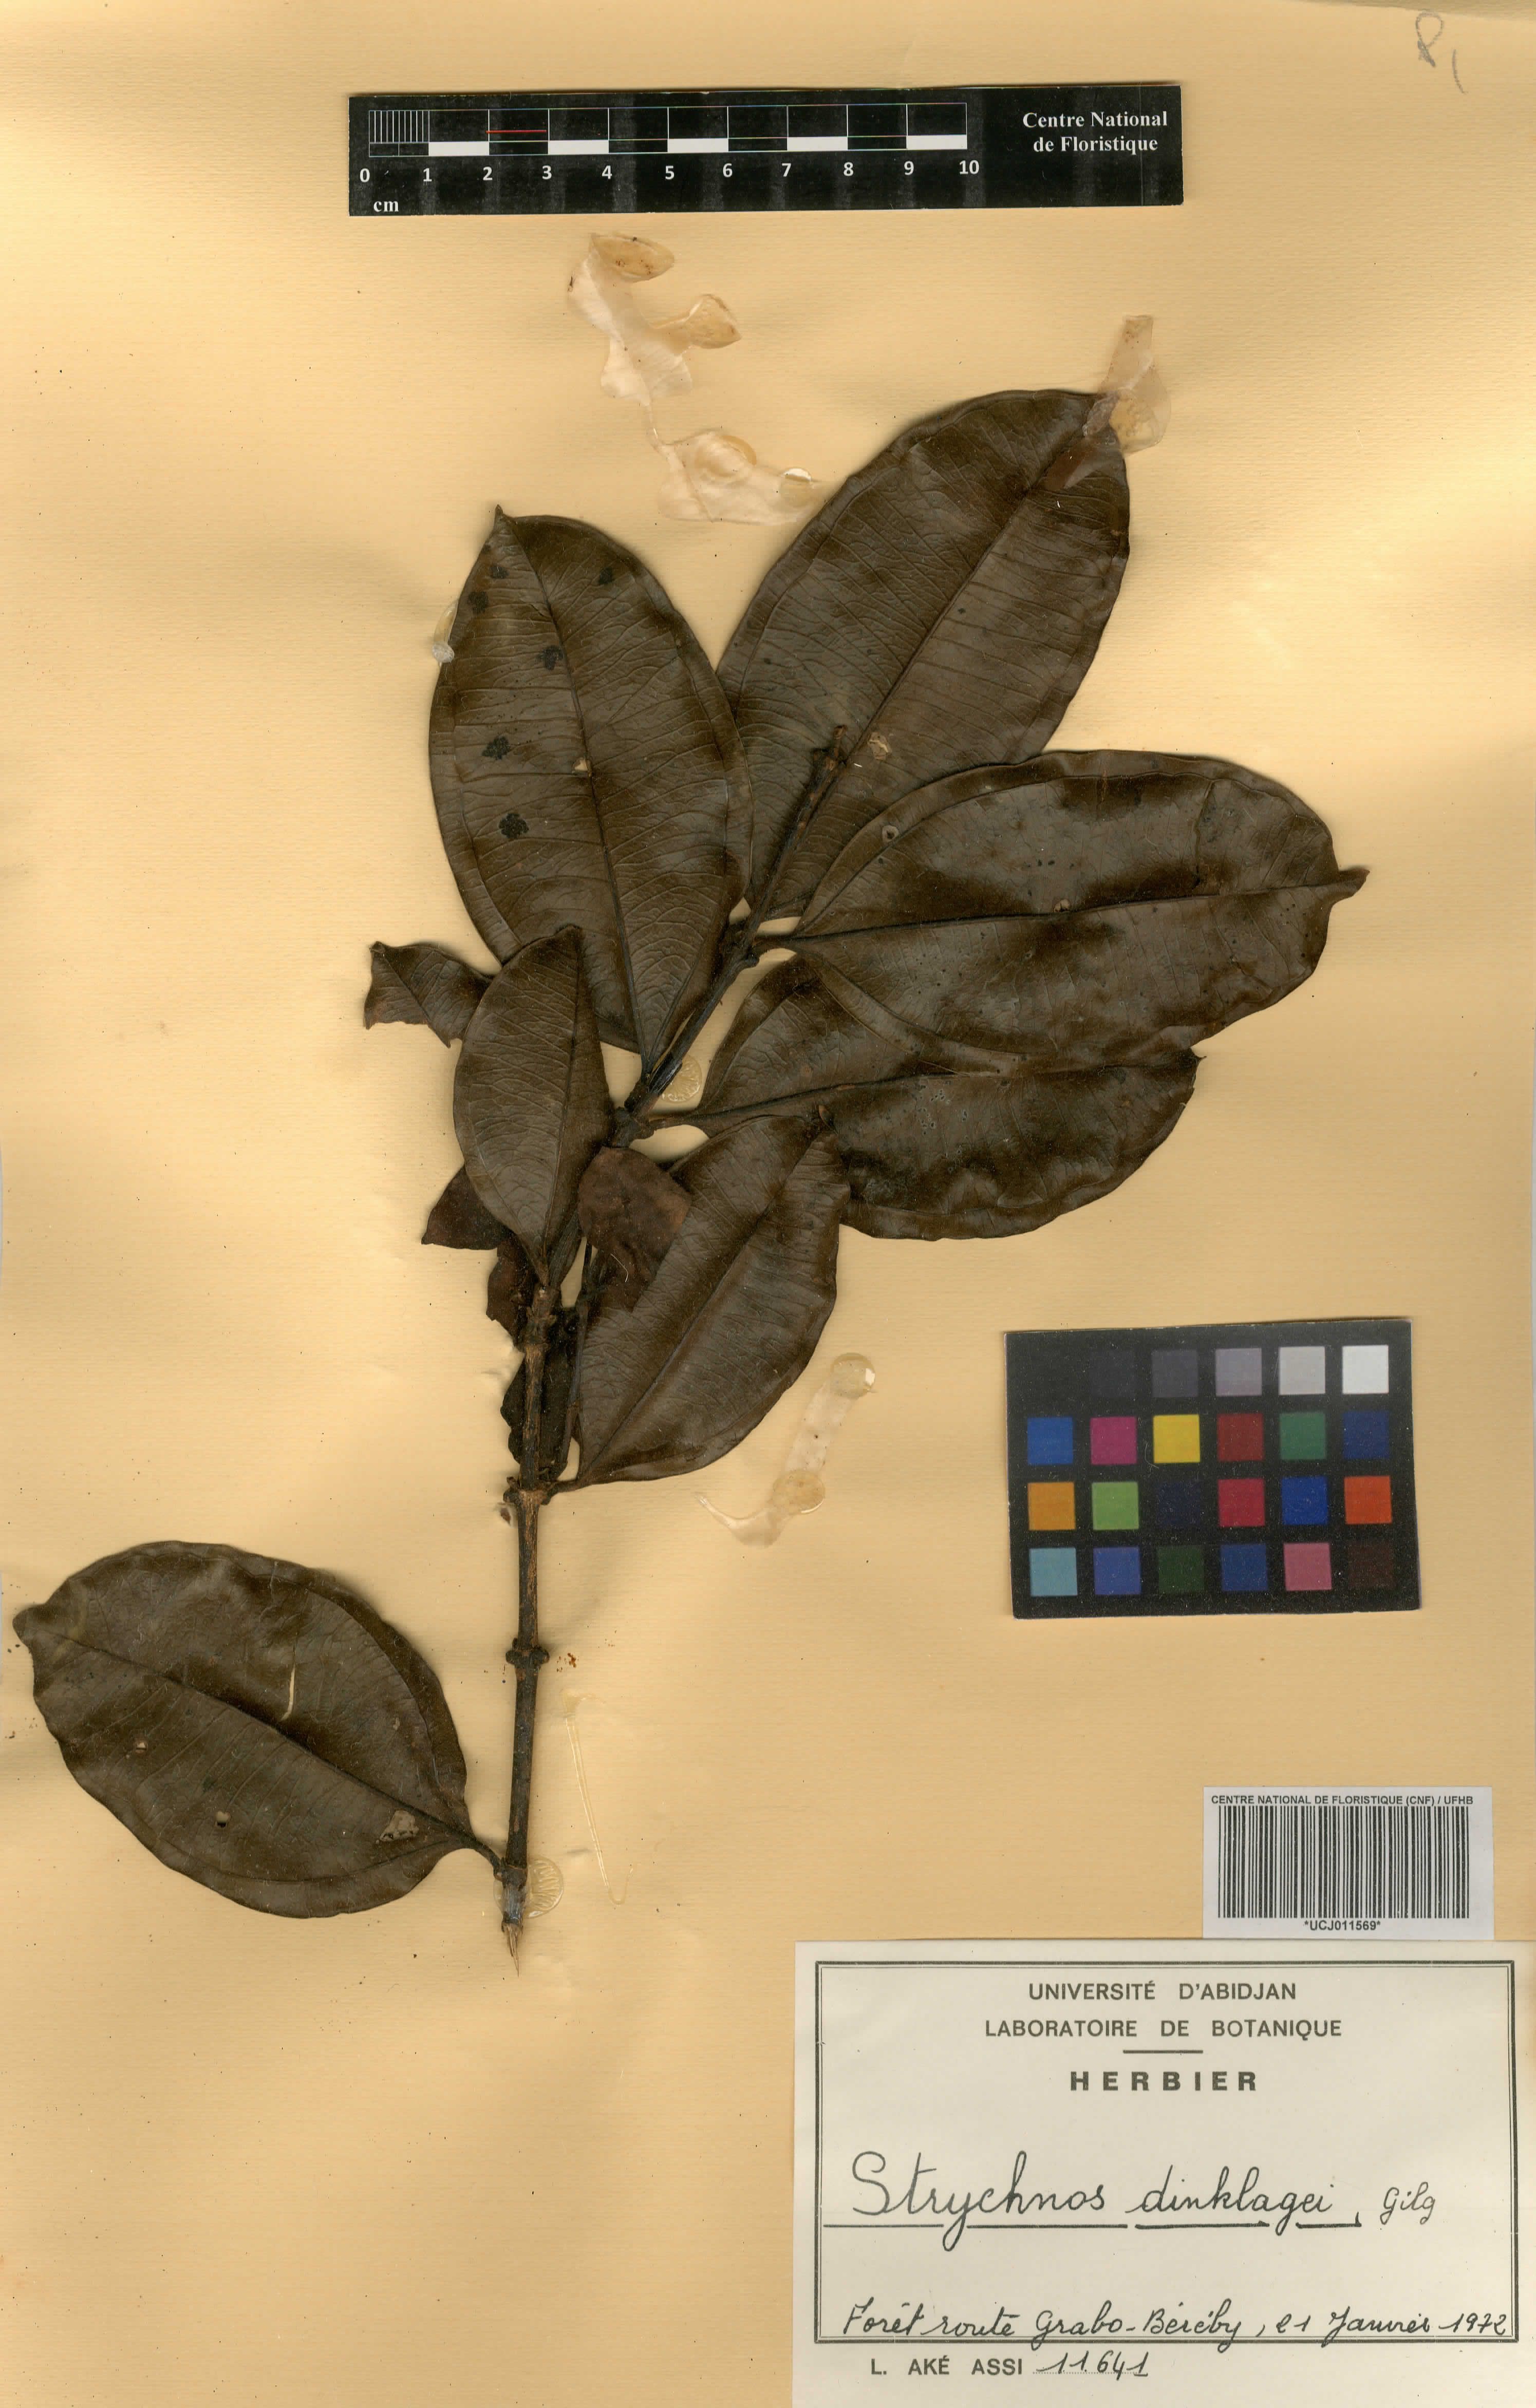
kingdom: Plantae
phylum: Tracheophyta
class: Magnoliopsida
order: Gentianales
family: Loganiaceae
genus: Strychnos
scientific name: Strychnos dinklagei
